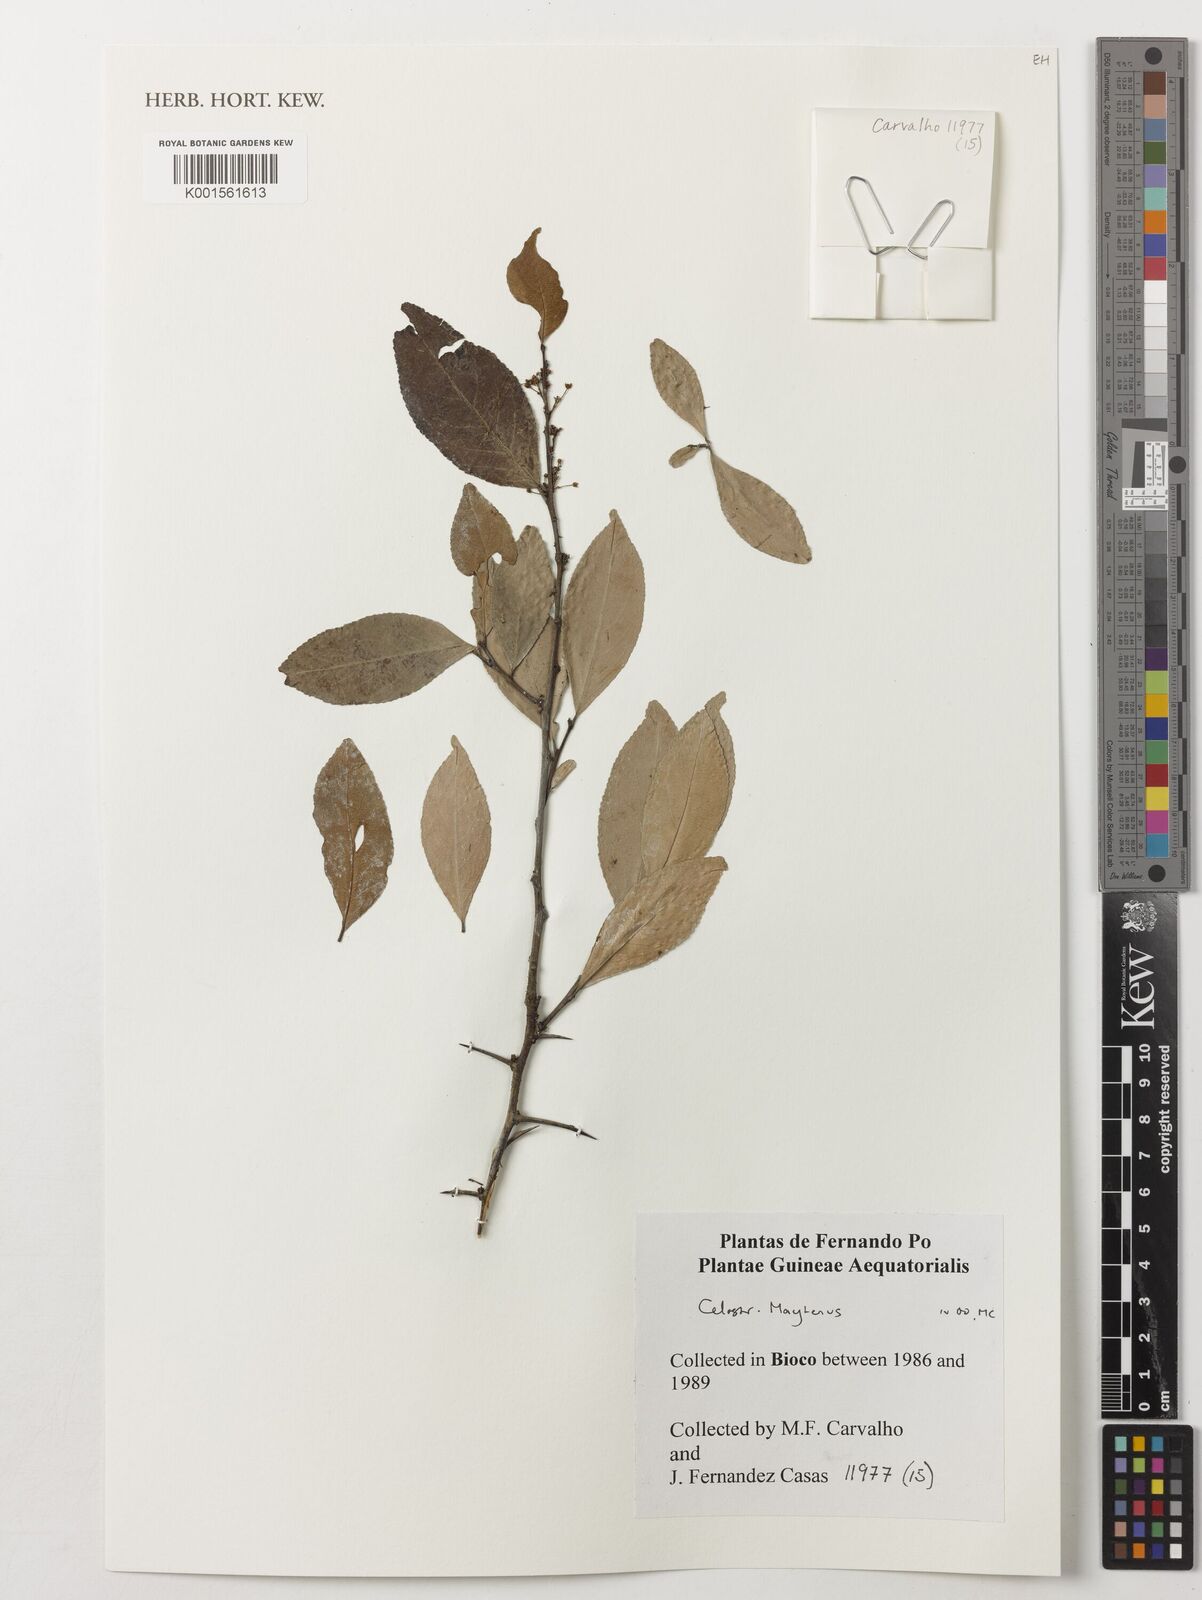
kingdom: Plantae
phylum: Tracheophyta
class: Magnoliopsida
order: Celastrales
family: Celastraceae
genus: Maytenus
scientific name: Maytenus
